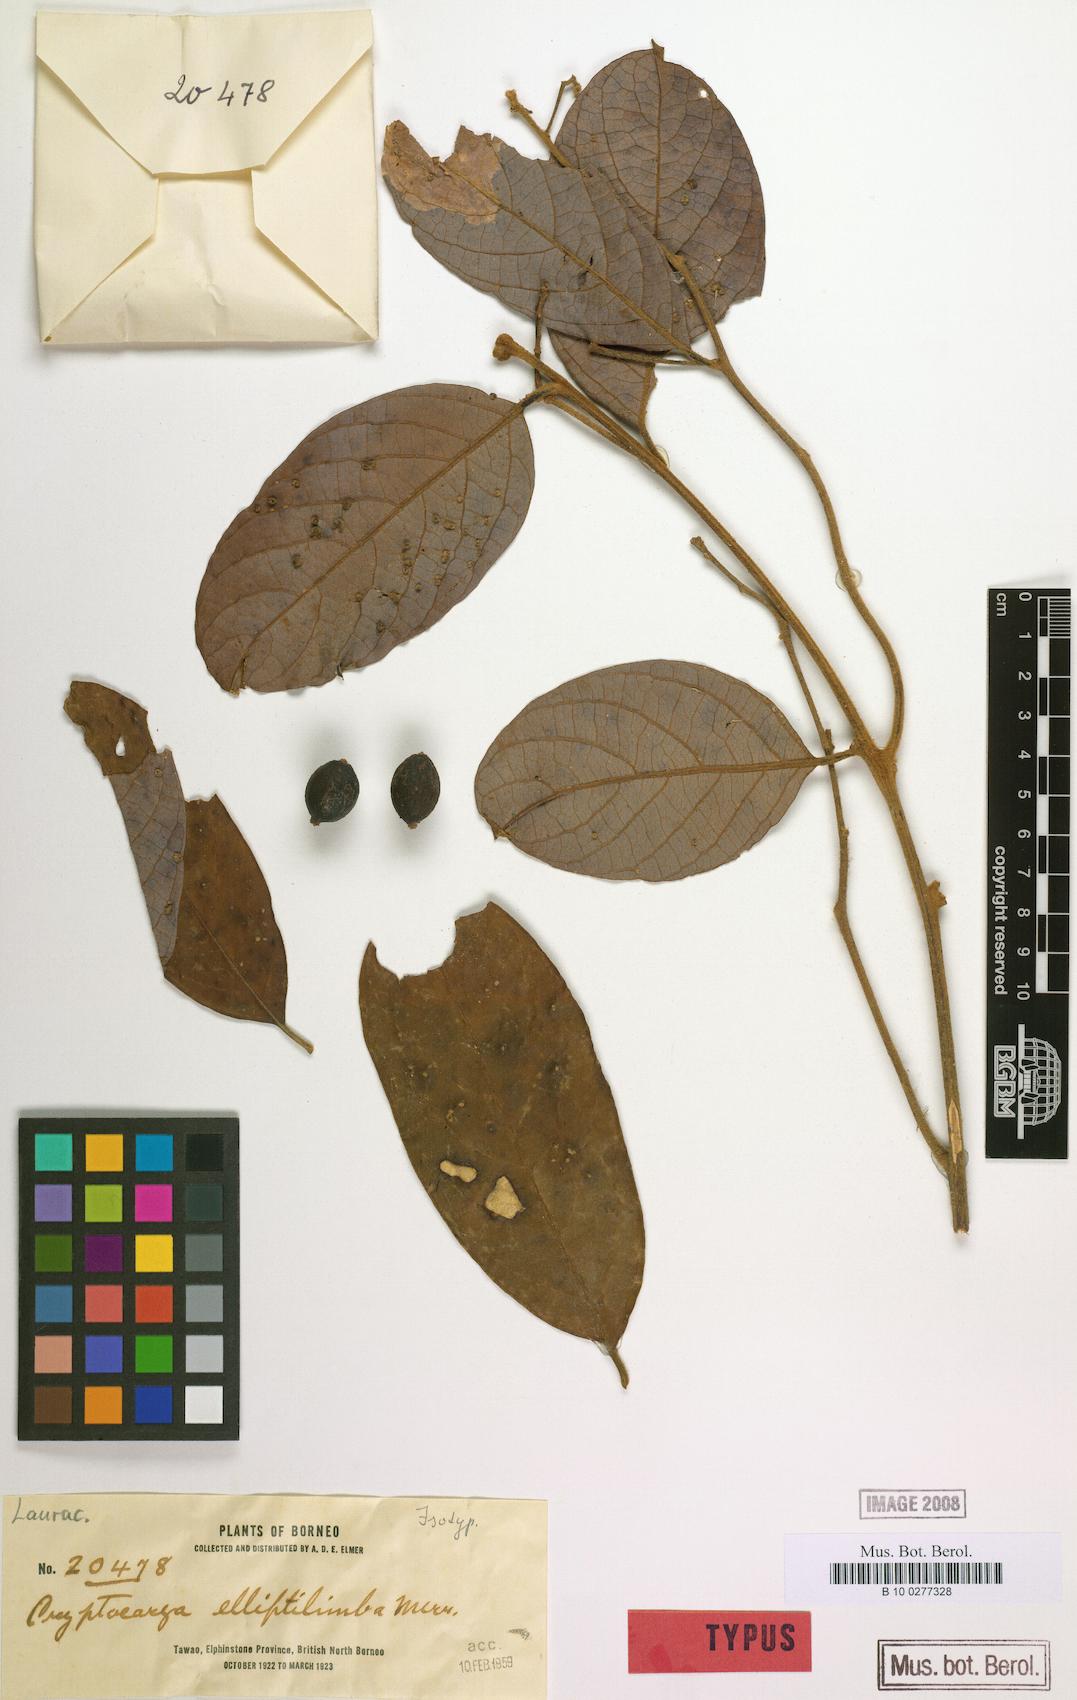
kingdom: Plantae
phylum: Tracheophyta
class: Magnoliopsida
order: Laurales
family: Lauraceae
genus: Cryptocarya
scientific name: Cryptocarya teysmanniana
